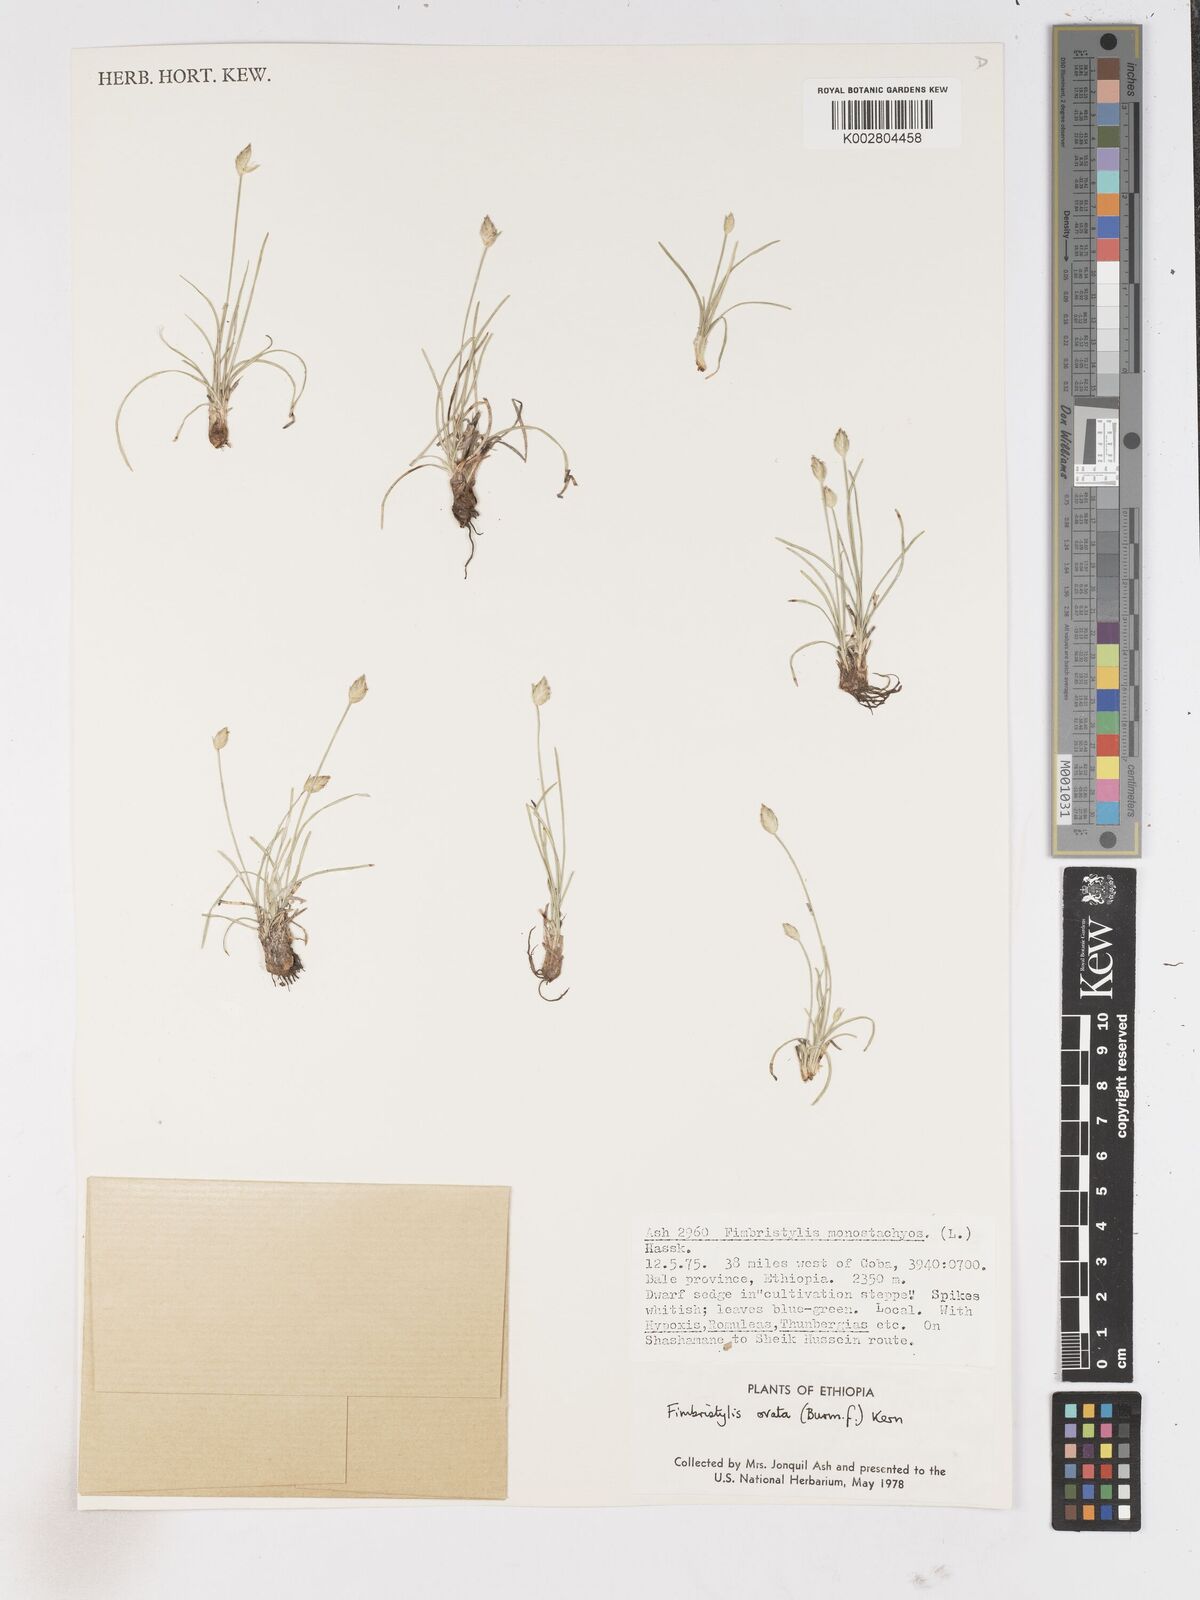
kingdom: Plantae
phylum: Tracheophyta
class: Liliopsida
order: Poales
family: Cyperaceae
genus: Abildgaardia
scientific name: Abildgaardia ovata
